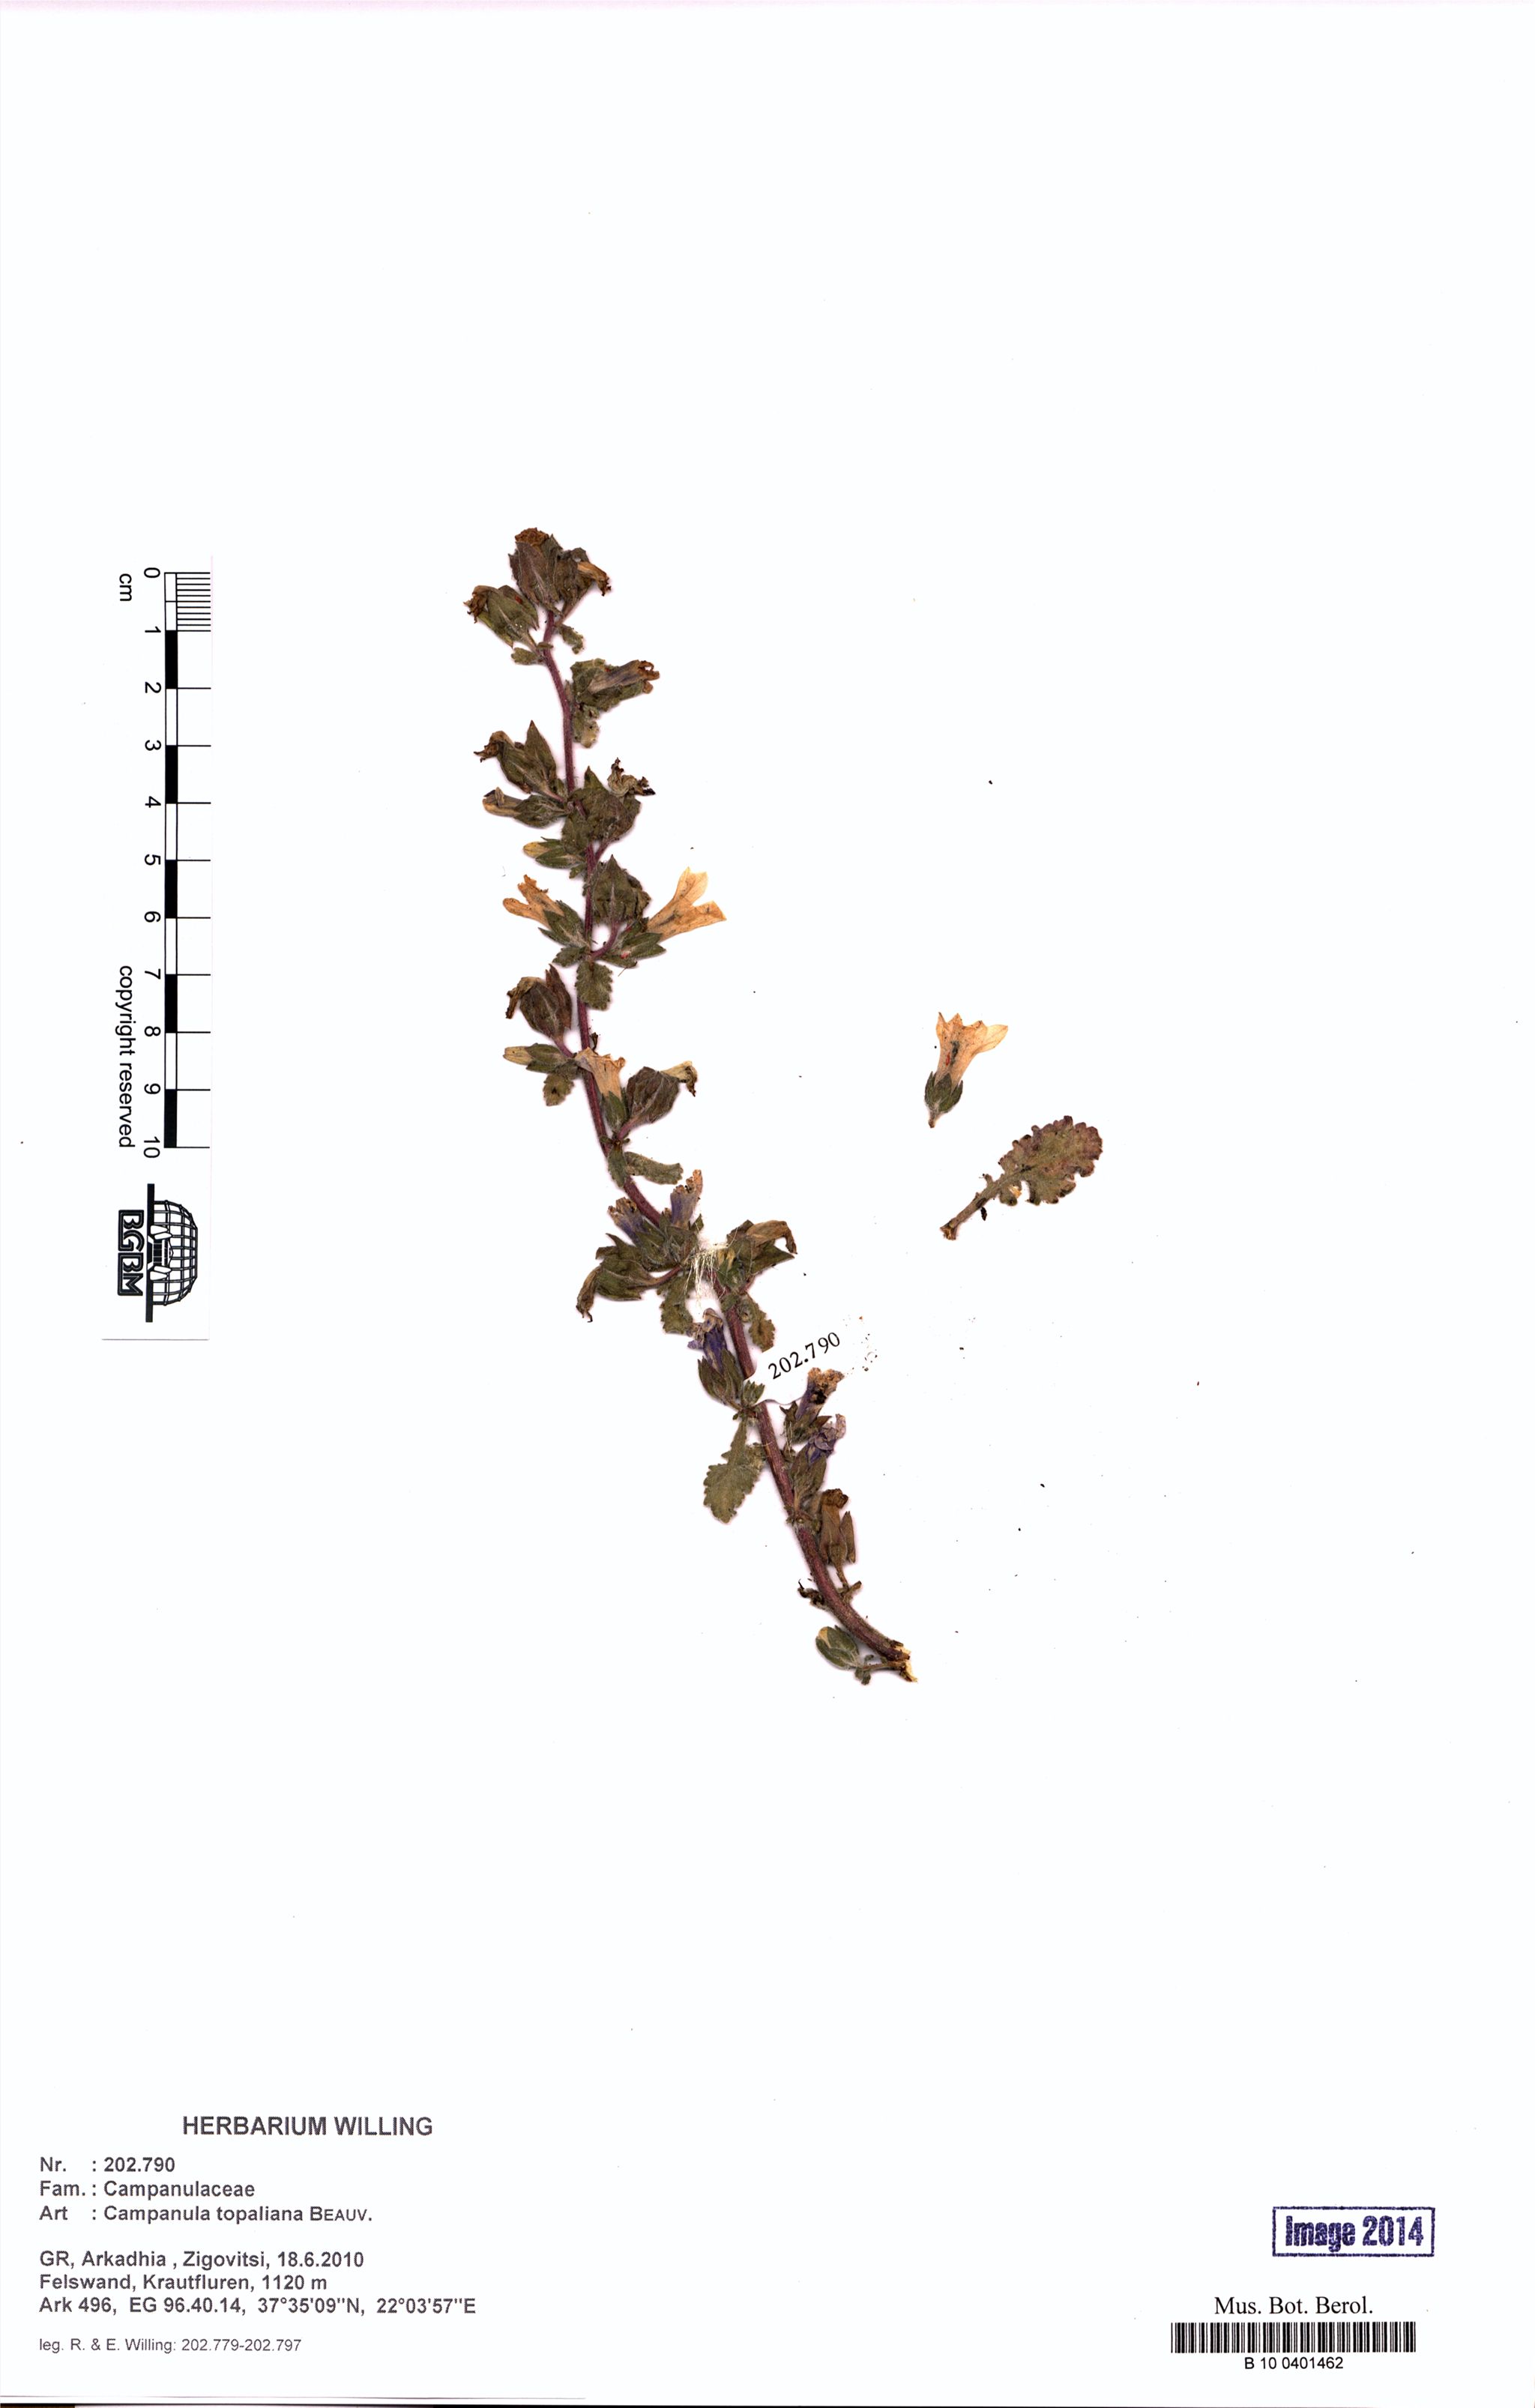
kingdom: Plantae
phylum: Tracheophyta
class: Magnoliopsida
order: Asterales
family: Campanulaceae
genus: Campanula
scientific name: Campanula topaliana
